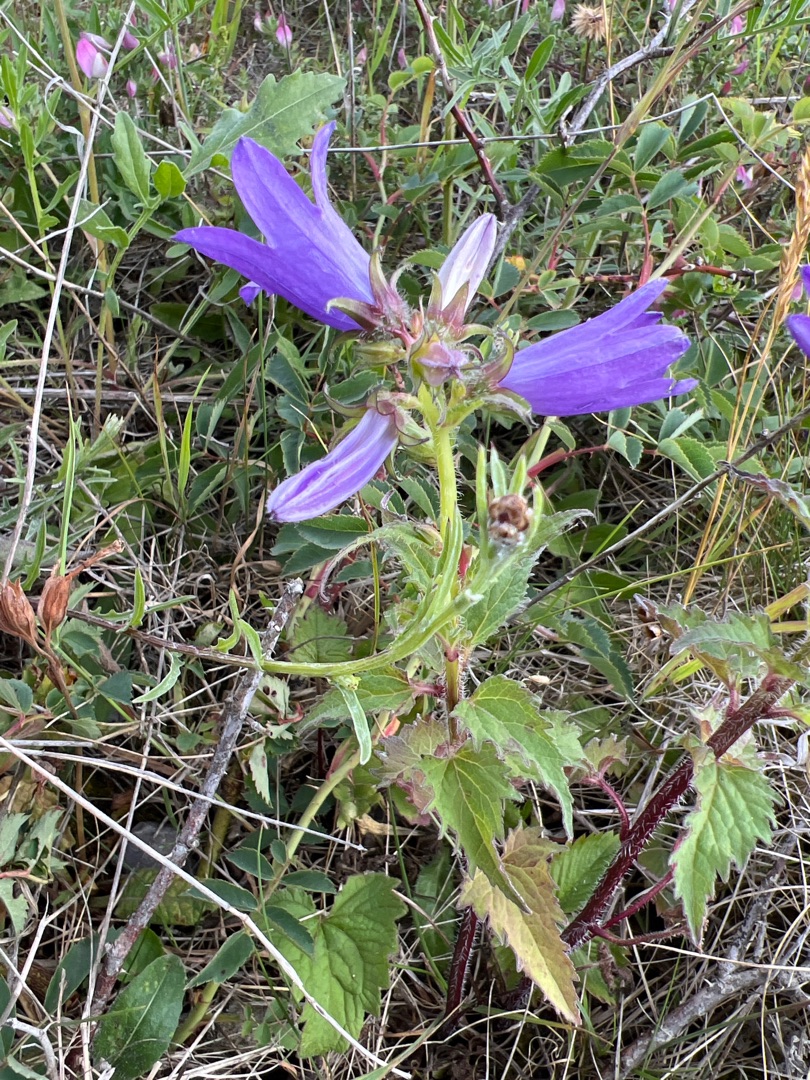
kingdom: Plantae
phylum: Tracheophyta
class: Magnoliopsida
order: Asterales
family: Campanulaceae
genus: Campanula
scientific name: Campanula trachelium
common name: Nælde-klokke
